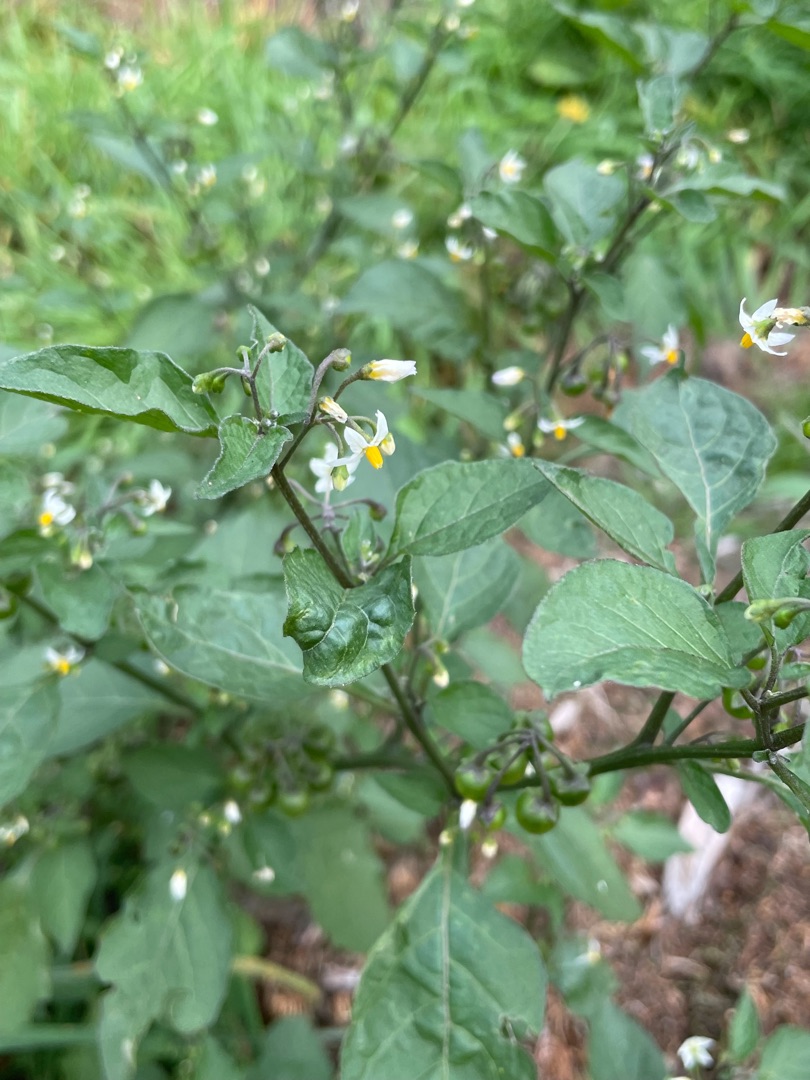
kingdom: Plantae
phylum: Tracheophyta
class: Magnoliopsida
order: Solanales
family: Solanaceae
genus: Solanum
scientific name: Solanum nigrum
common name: Sort natskygge
